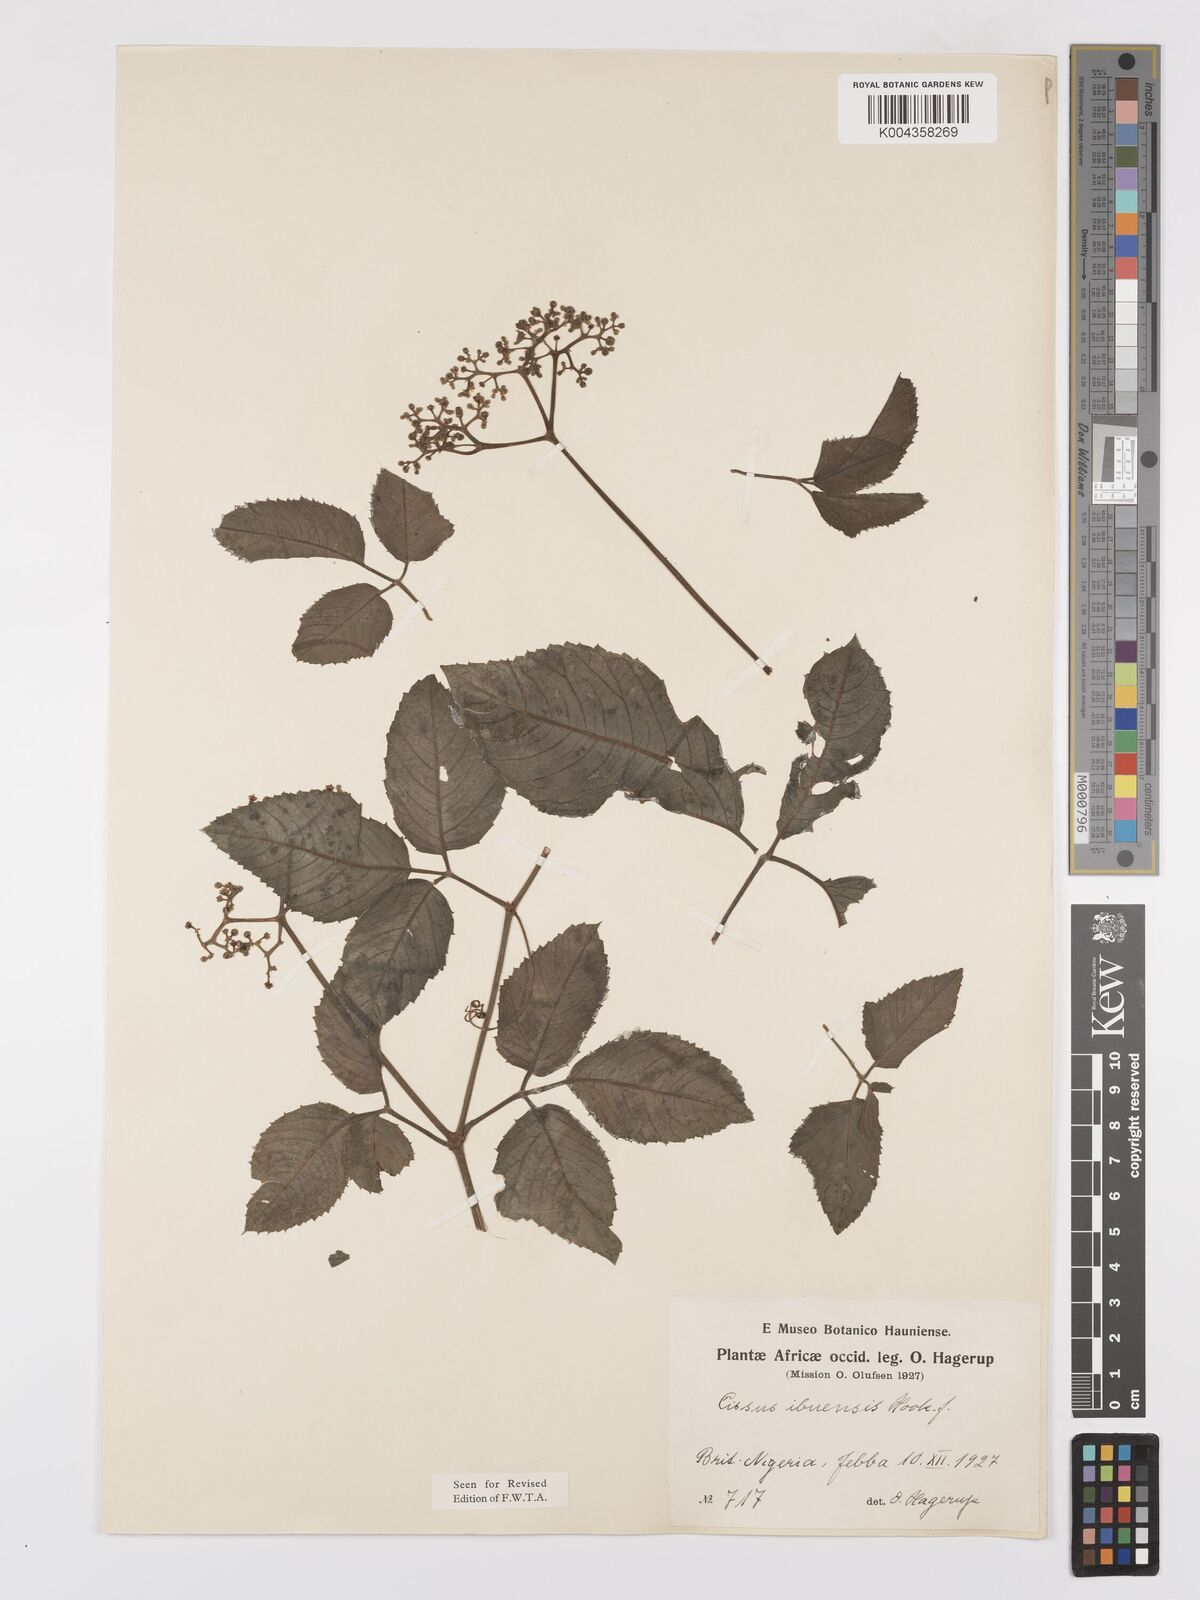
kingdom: Plantae
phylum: Tracheophyta
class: Magnoliopsida
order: Vitales
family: Vitaceae
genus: Afrocayratia
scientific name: Afrocayratia ibuensis
